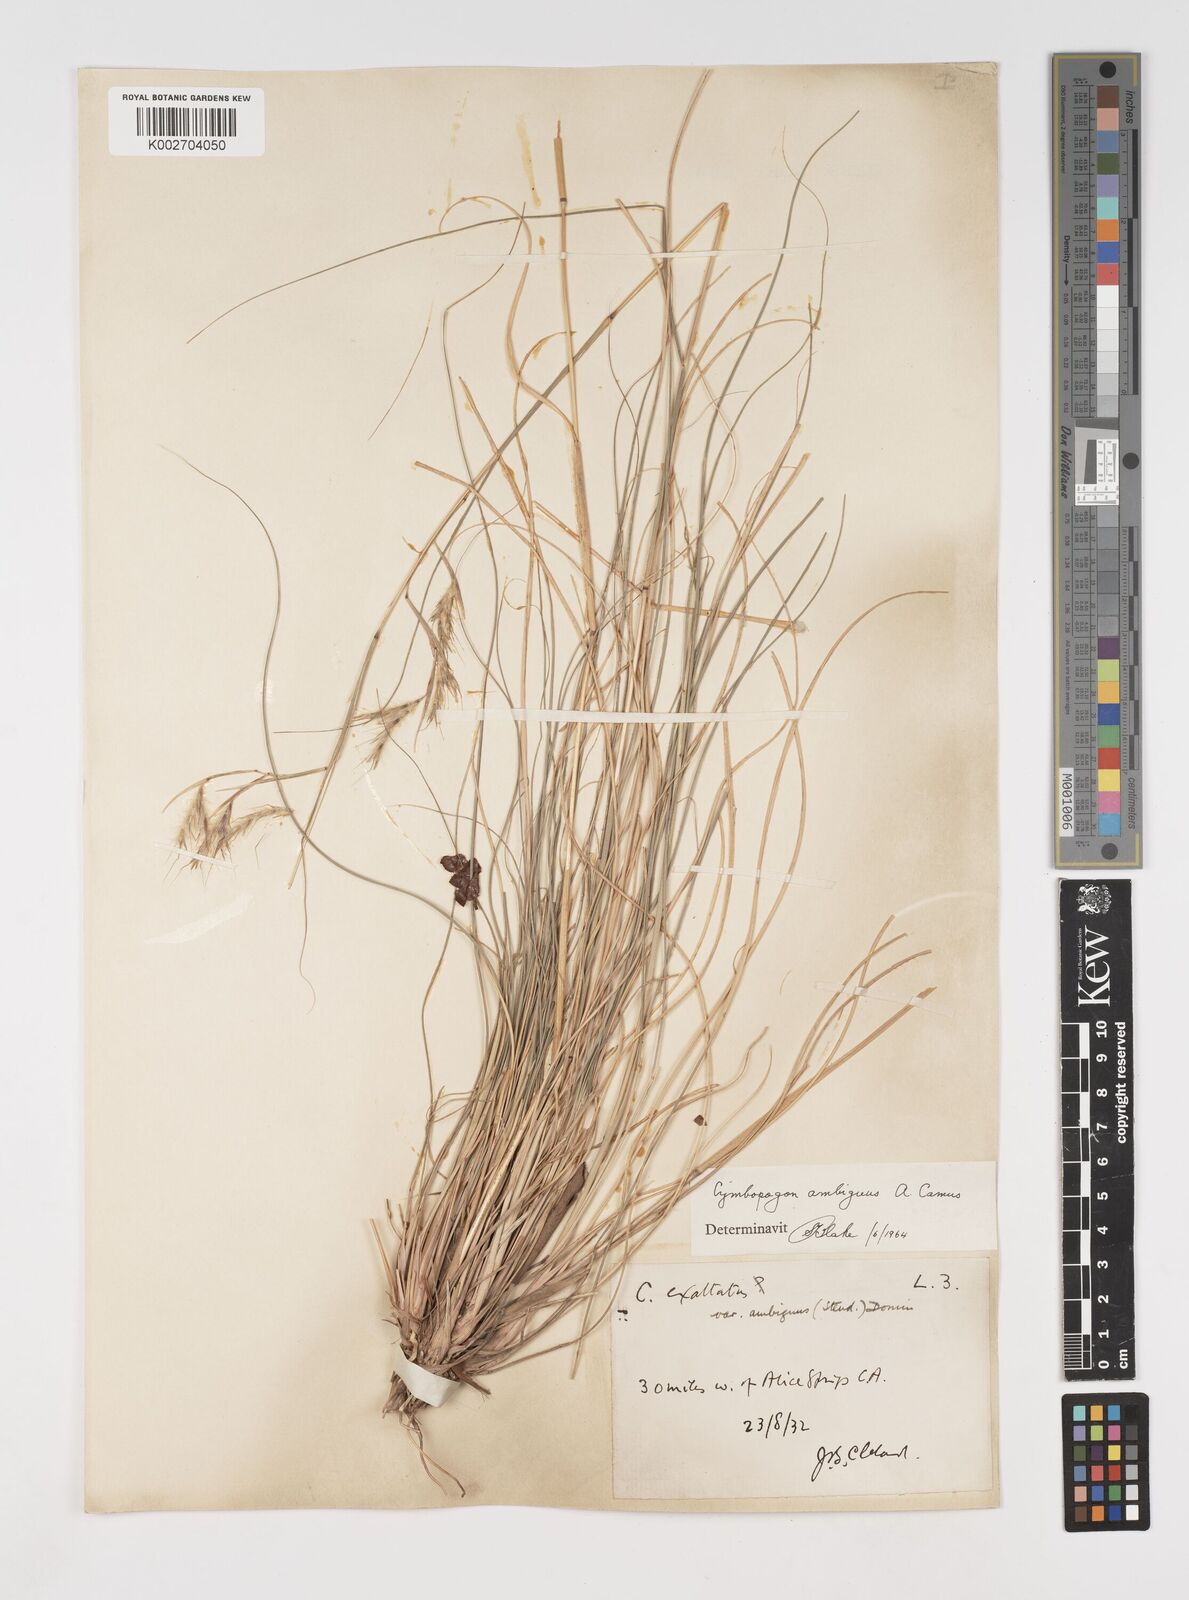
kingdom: Plantae
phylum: Tracheophyta
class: Liliopsida
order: Poales
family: Poaceae
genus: Cymbopogon
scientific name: Cymbopogon ambiguus
